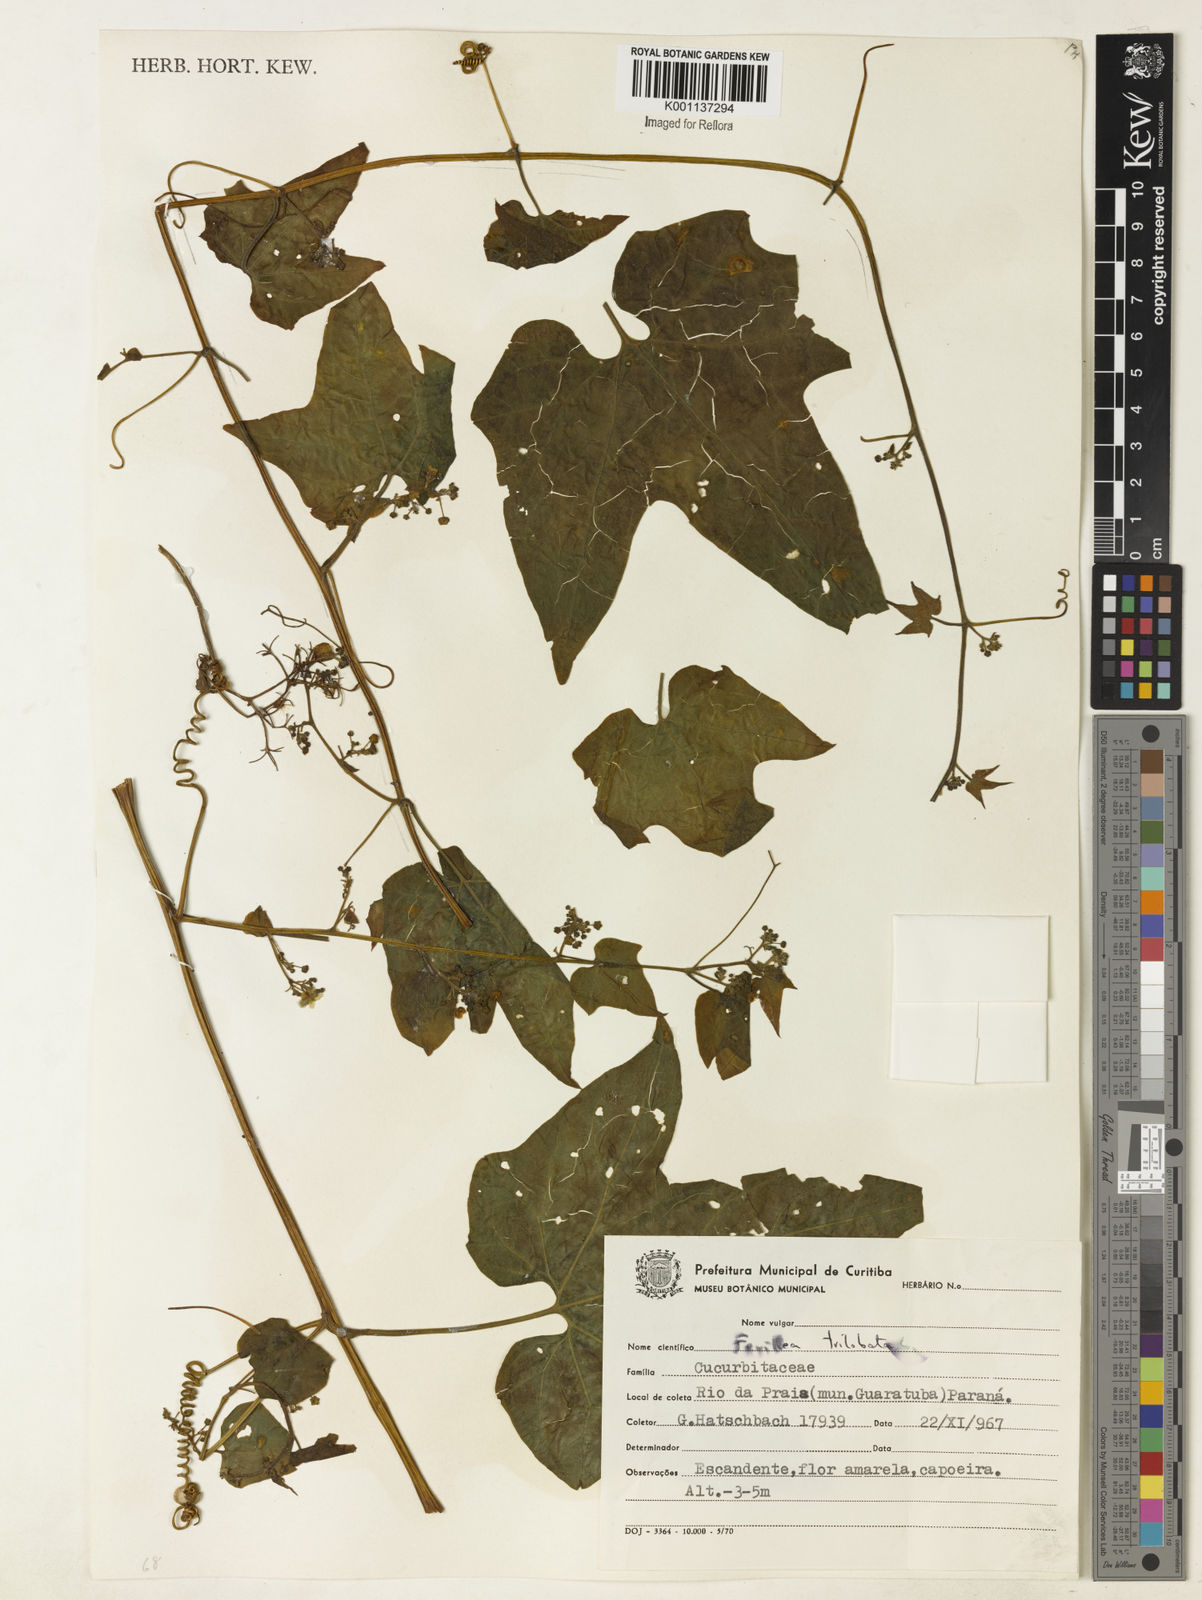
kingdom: Plantae
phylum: Tracheophyta
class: Magnoliopsida
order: Cucurbitales
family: Cucurbitaceae
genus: Fevillea
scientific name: Fevillea trilobata
